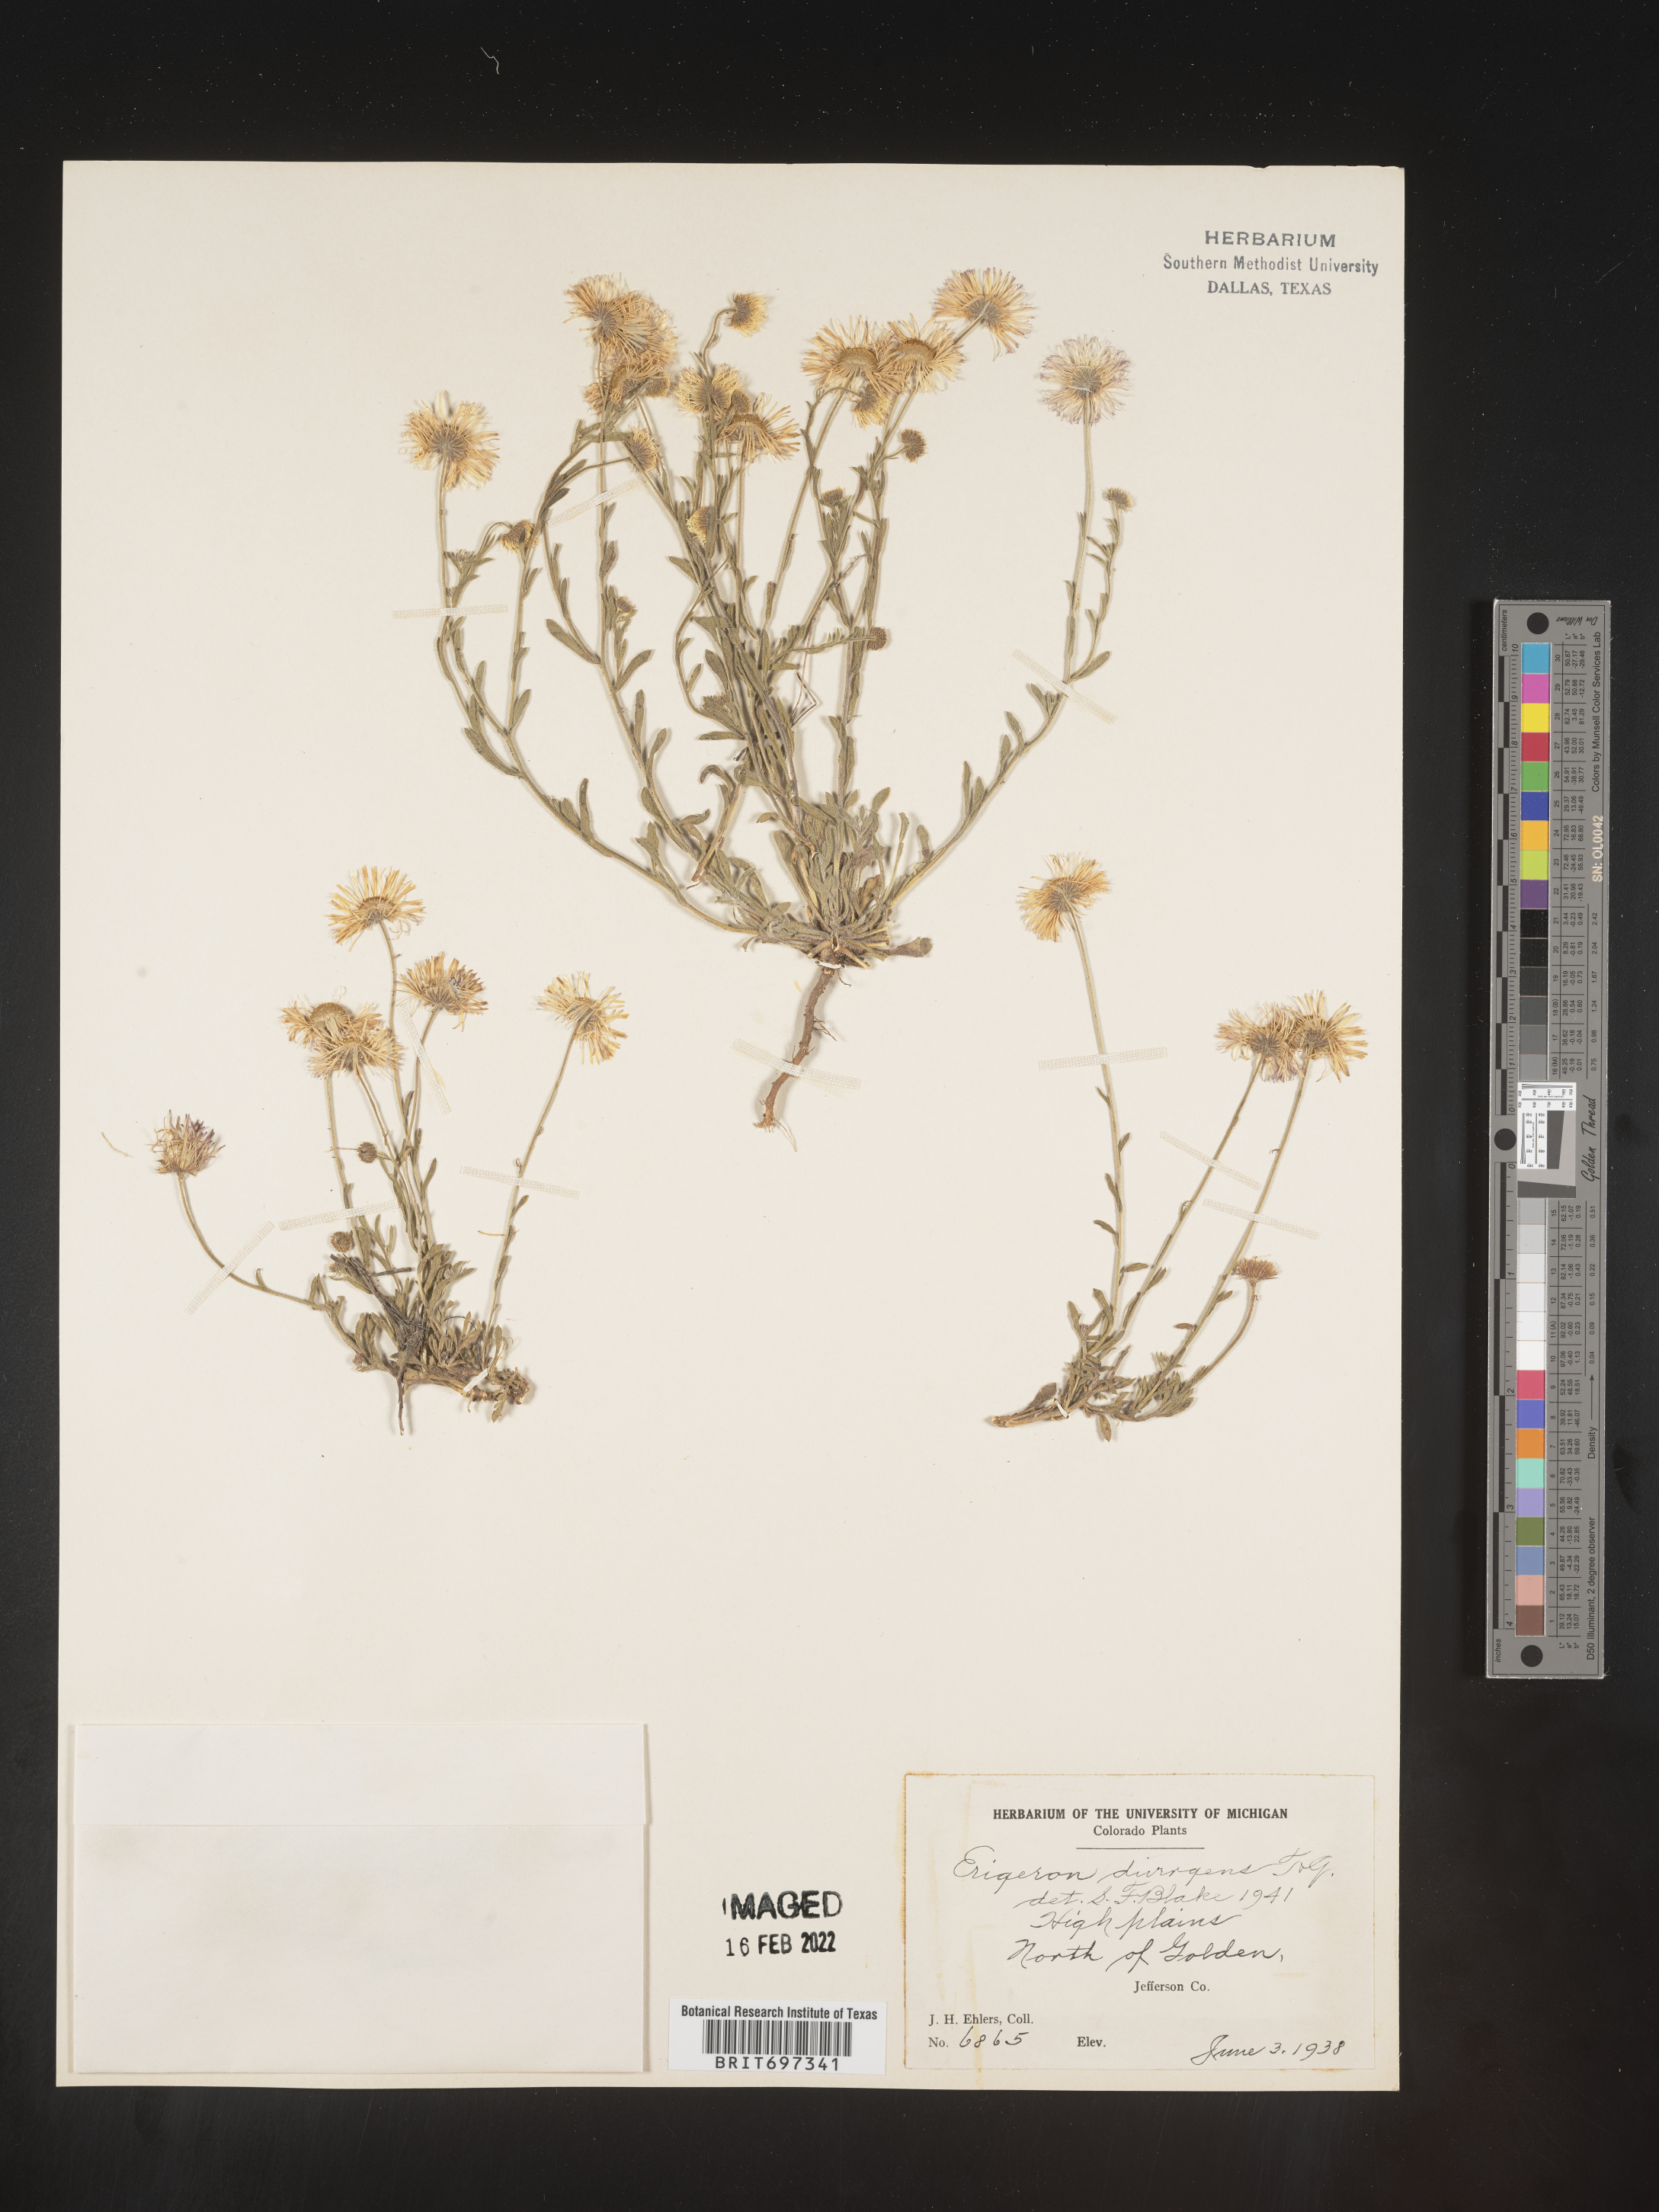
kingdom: Plantae
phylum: Tracheophyta
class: Magnoliopsida
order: Asterales
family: Asteraceae
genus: Erigeron
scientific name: Erigeron divergens
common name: Diffuse fleabane
